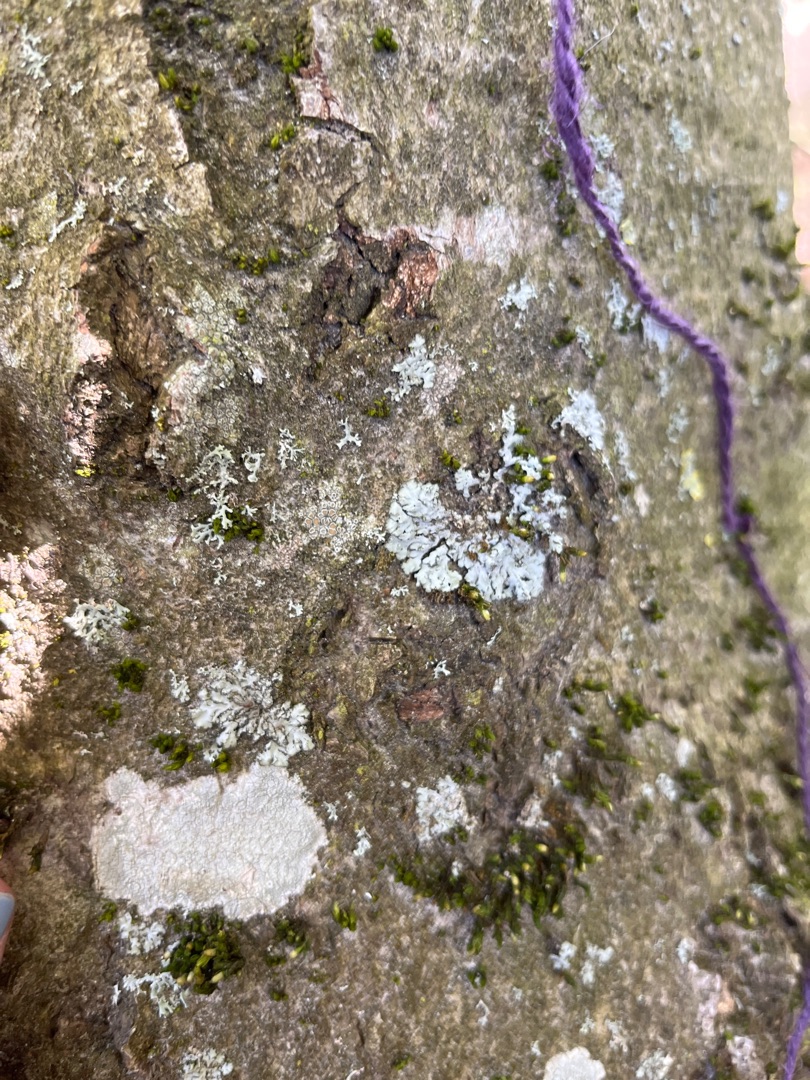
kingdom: Fungi
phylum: Ascomycota
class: Lecanoromycetes
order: Caliciales
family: Physciaceae
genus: Phaeophyscia
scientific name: Phaeophyscia orbicularis
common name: Grågrøn rosetlav
